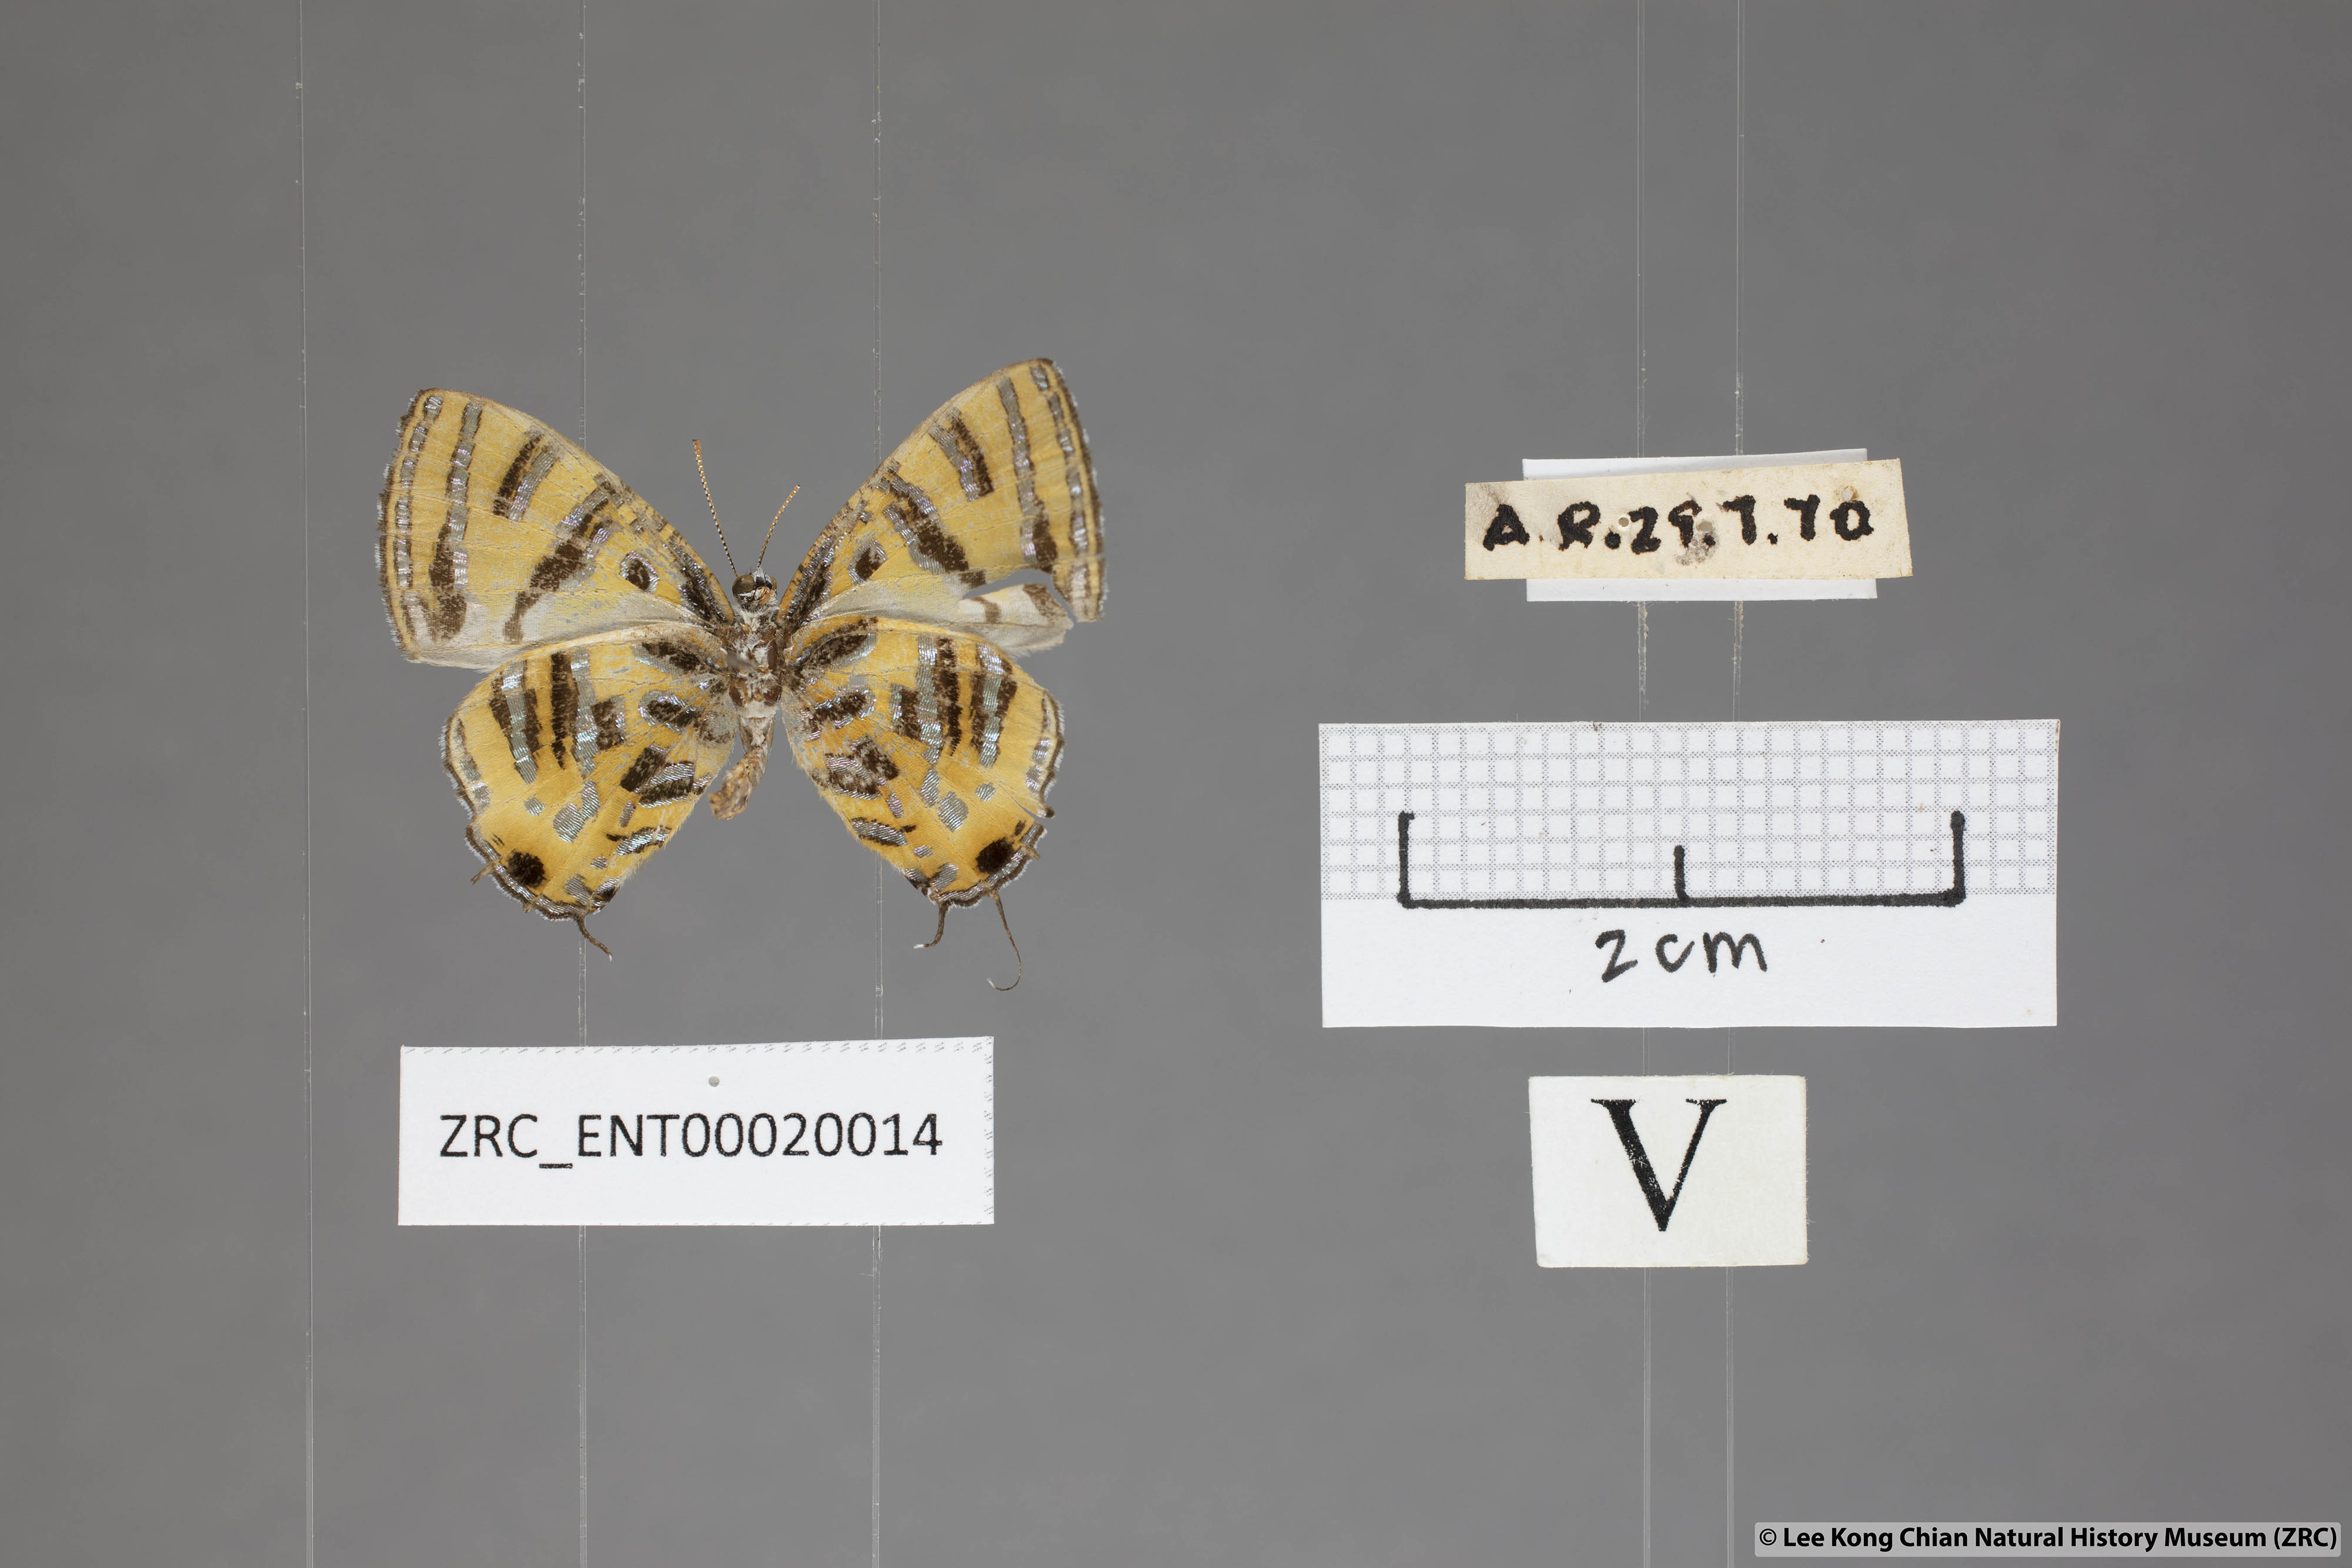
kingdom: Animalia
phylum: Arthropoda
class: Insecta
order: Lepidoptera
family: Lycaenidae
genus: Catapaecilma
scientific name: Catapaecilma subochrea
